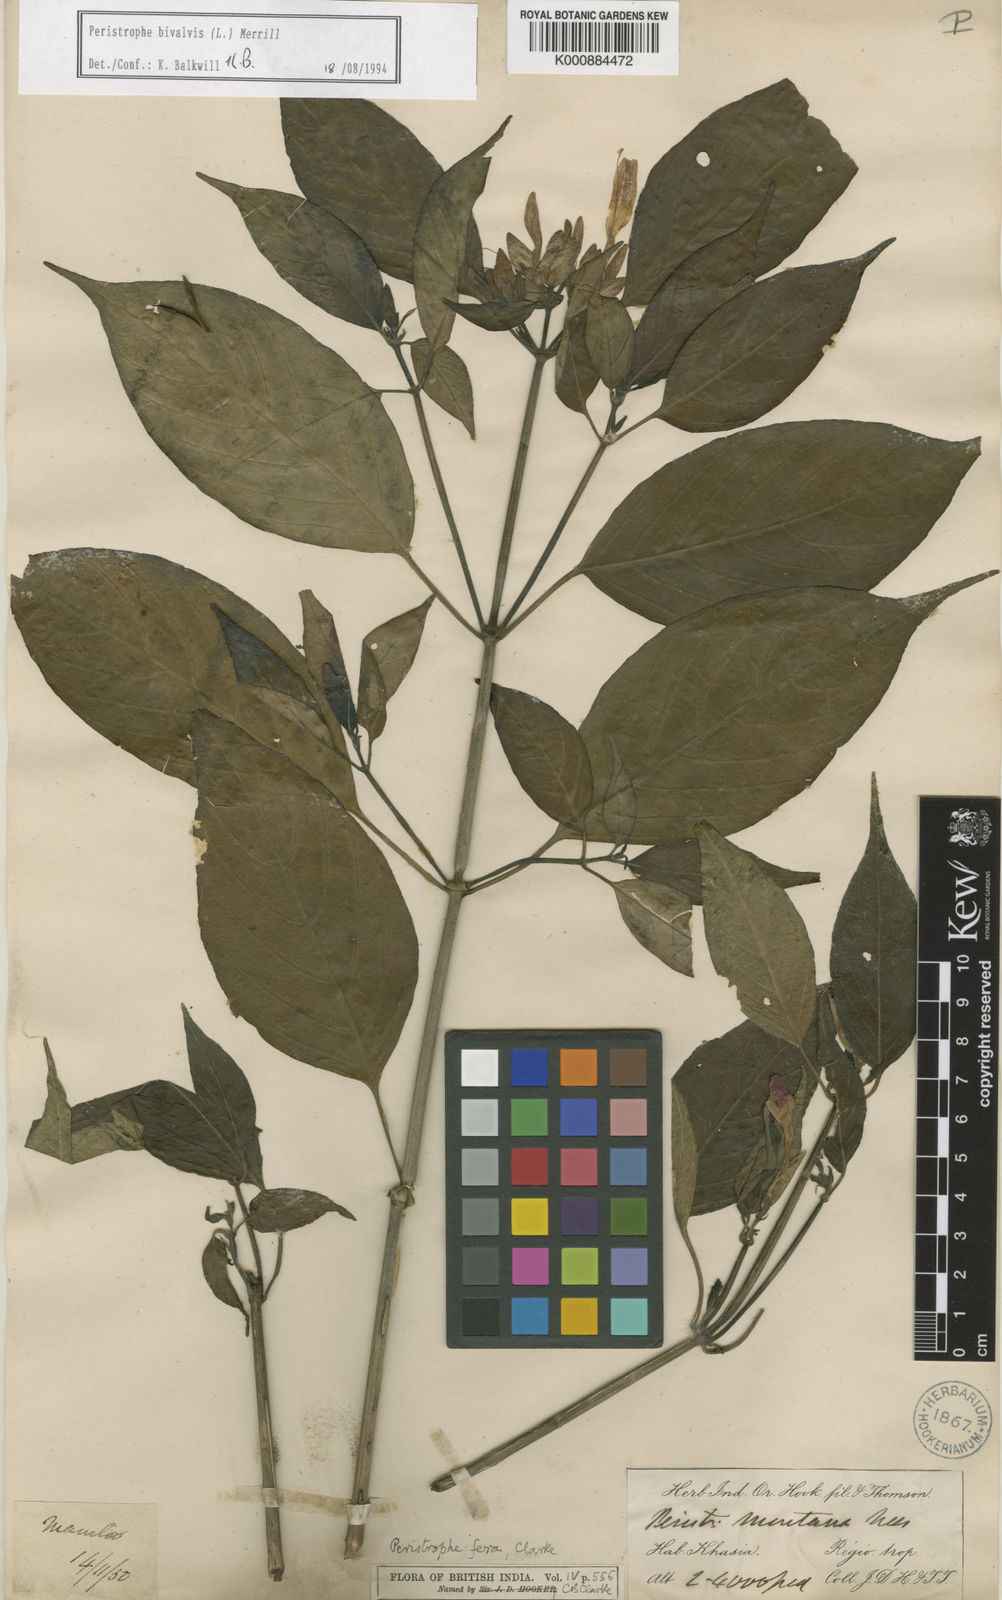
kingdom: Plantae
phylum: Tracheophyta
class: Magnoliopsida
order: Lamiales
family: Acanthaceae
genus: Dicliptera
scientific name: Dicliptera tinctoria
